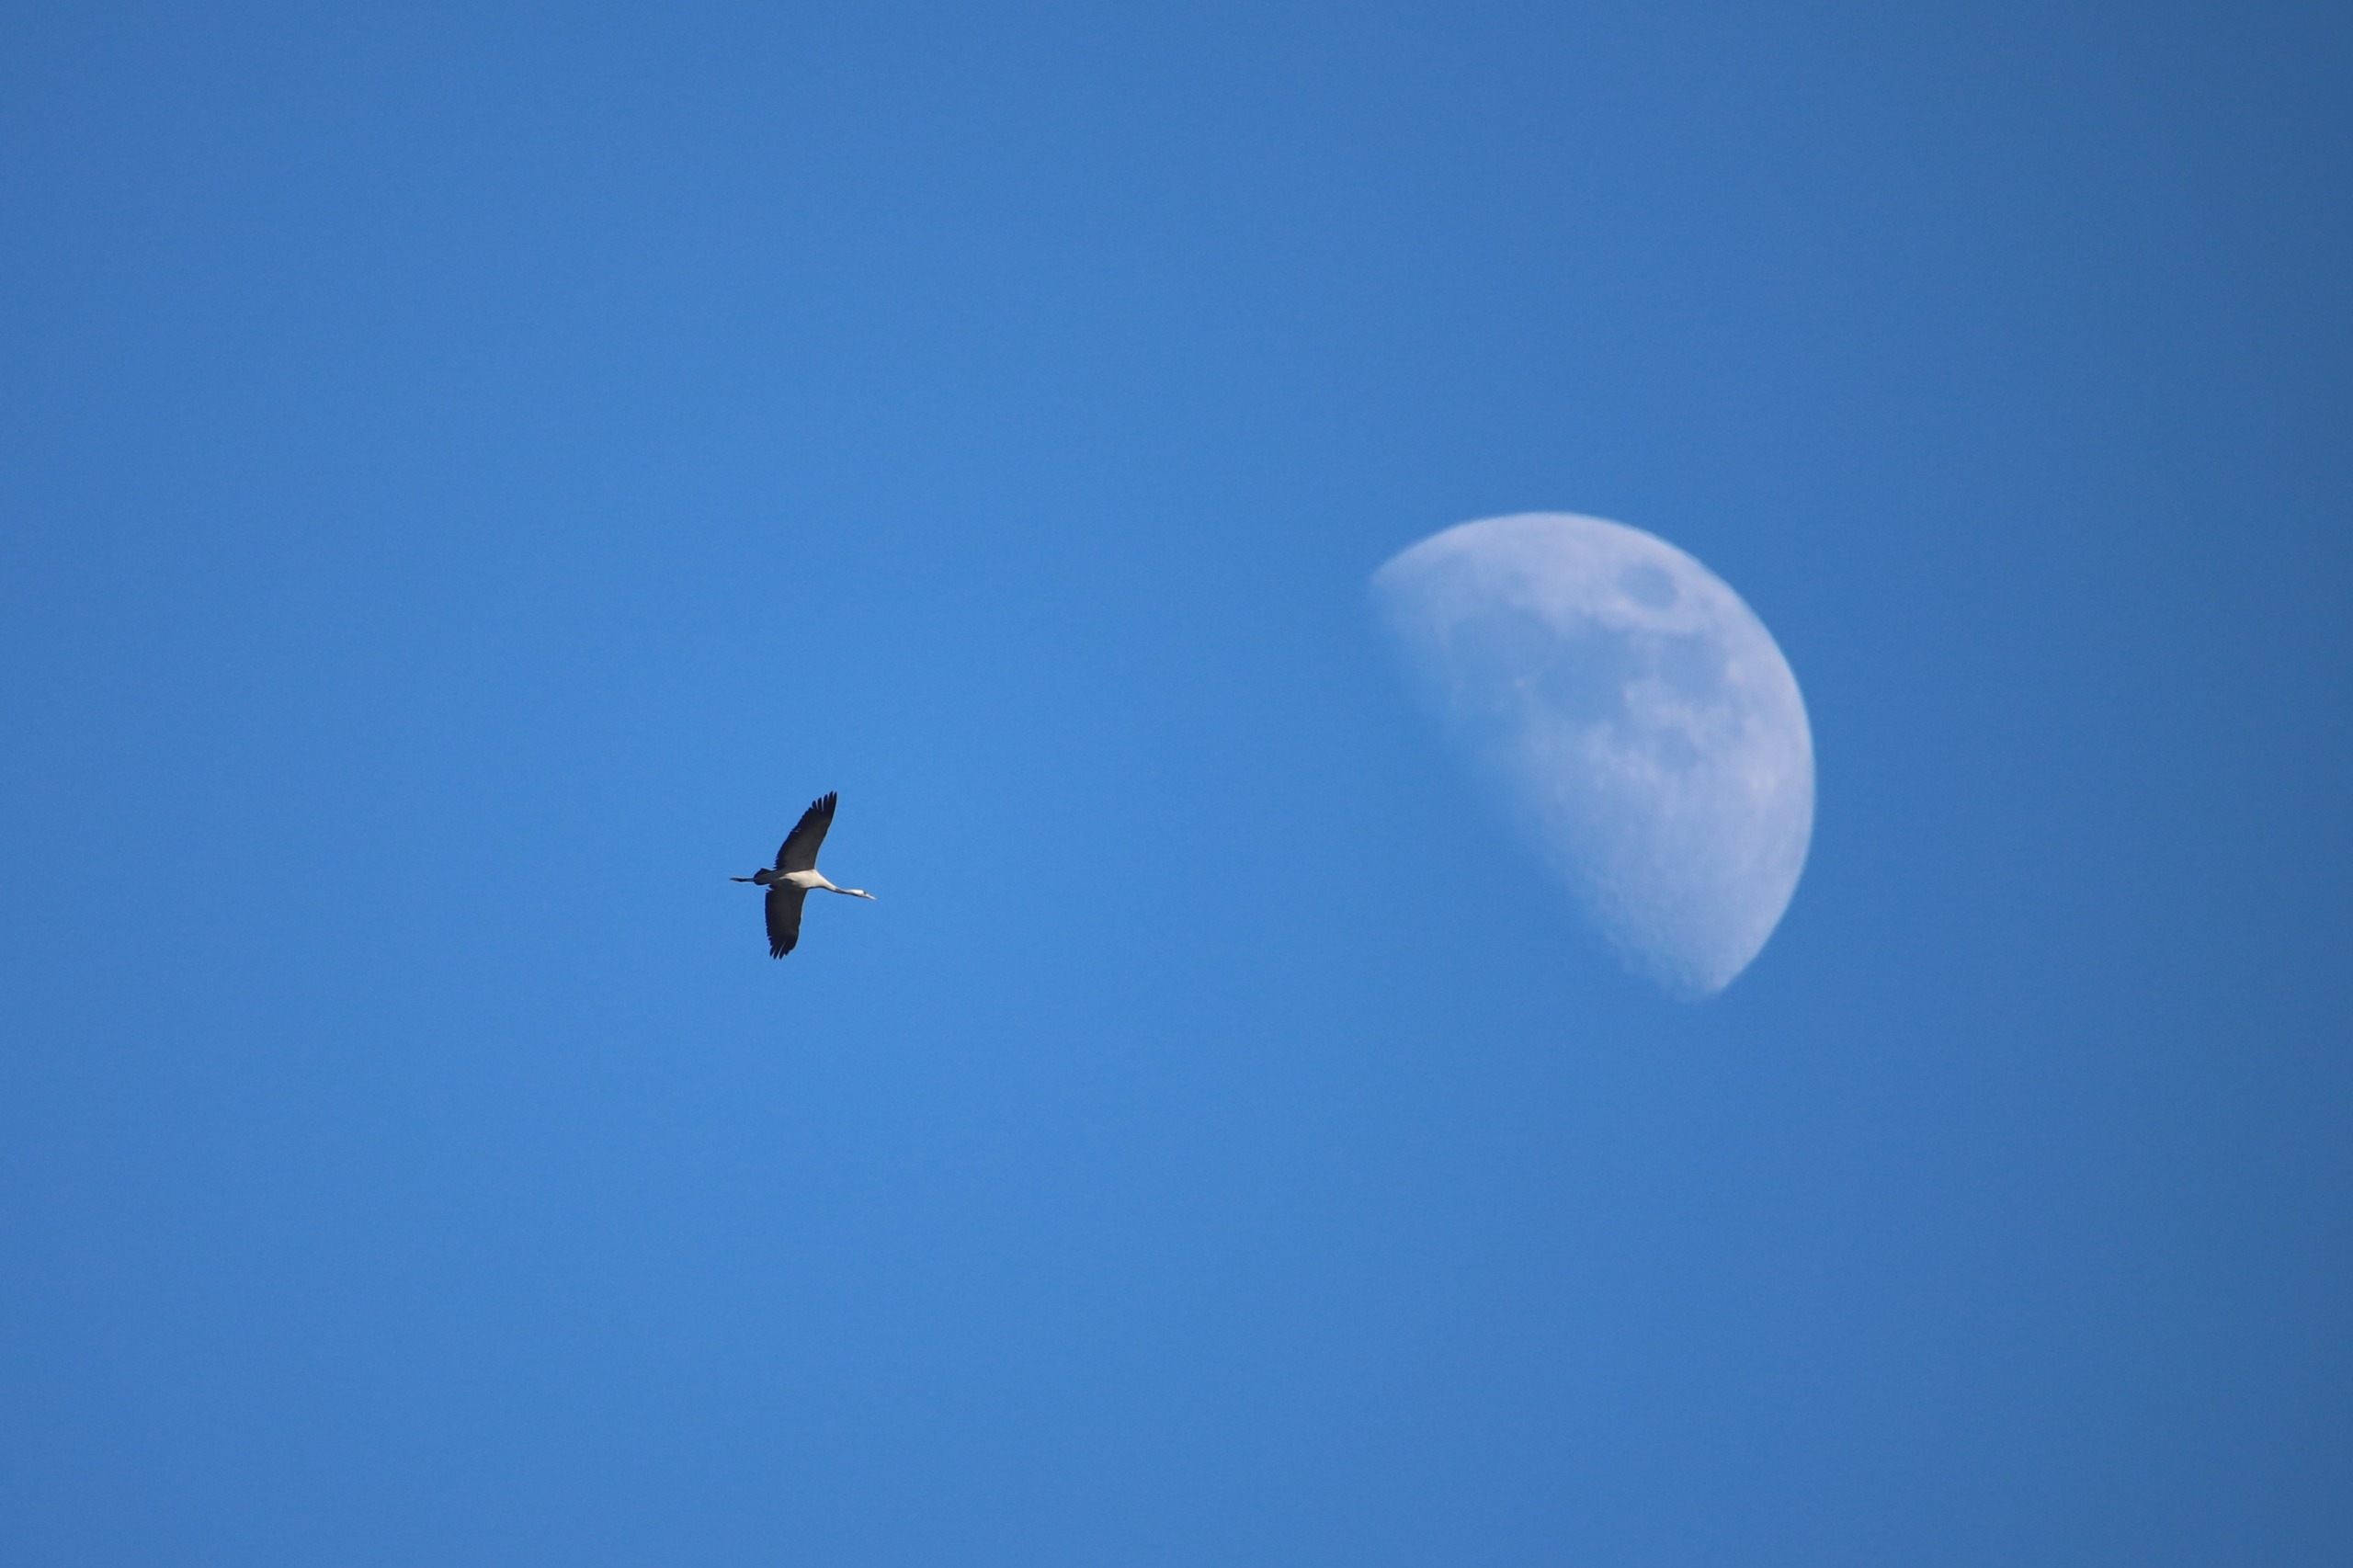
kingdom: Animalia
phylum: Chordata
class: Aves
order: Gruiformes
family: Gruidae
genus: Grus
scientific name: Grus grus
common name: Trane
